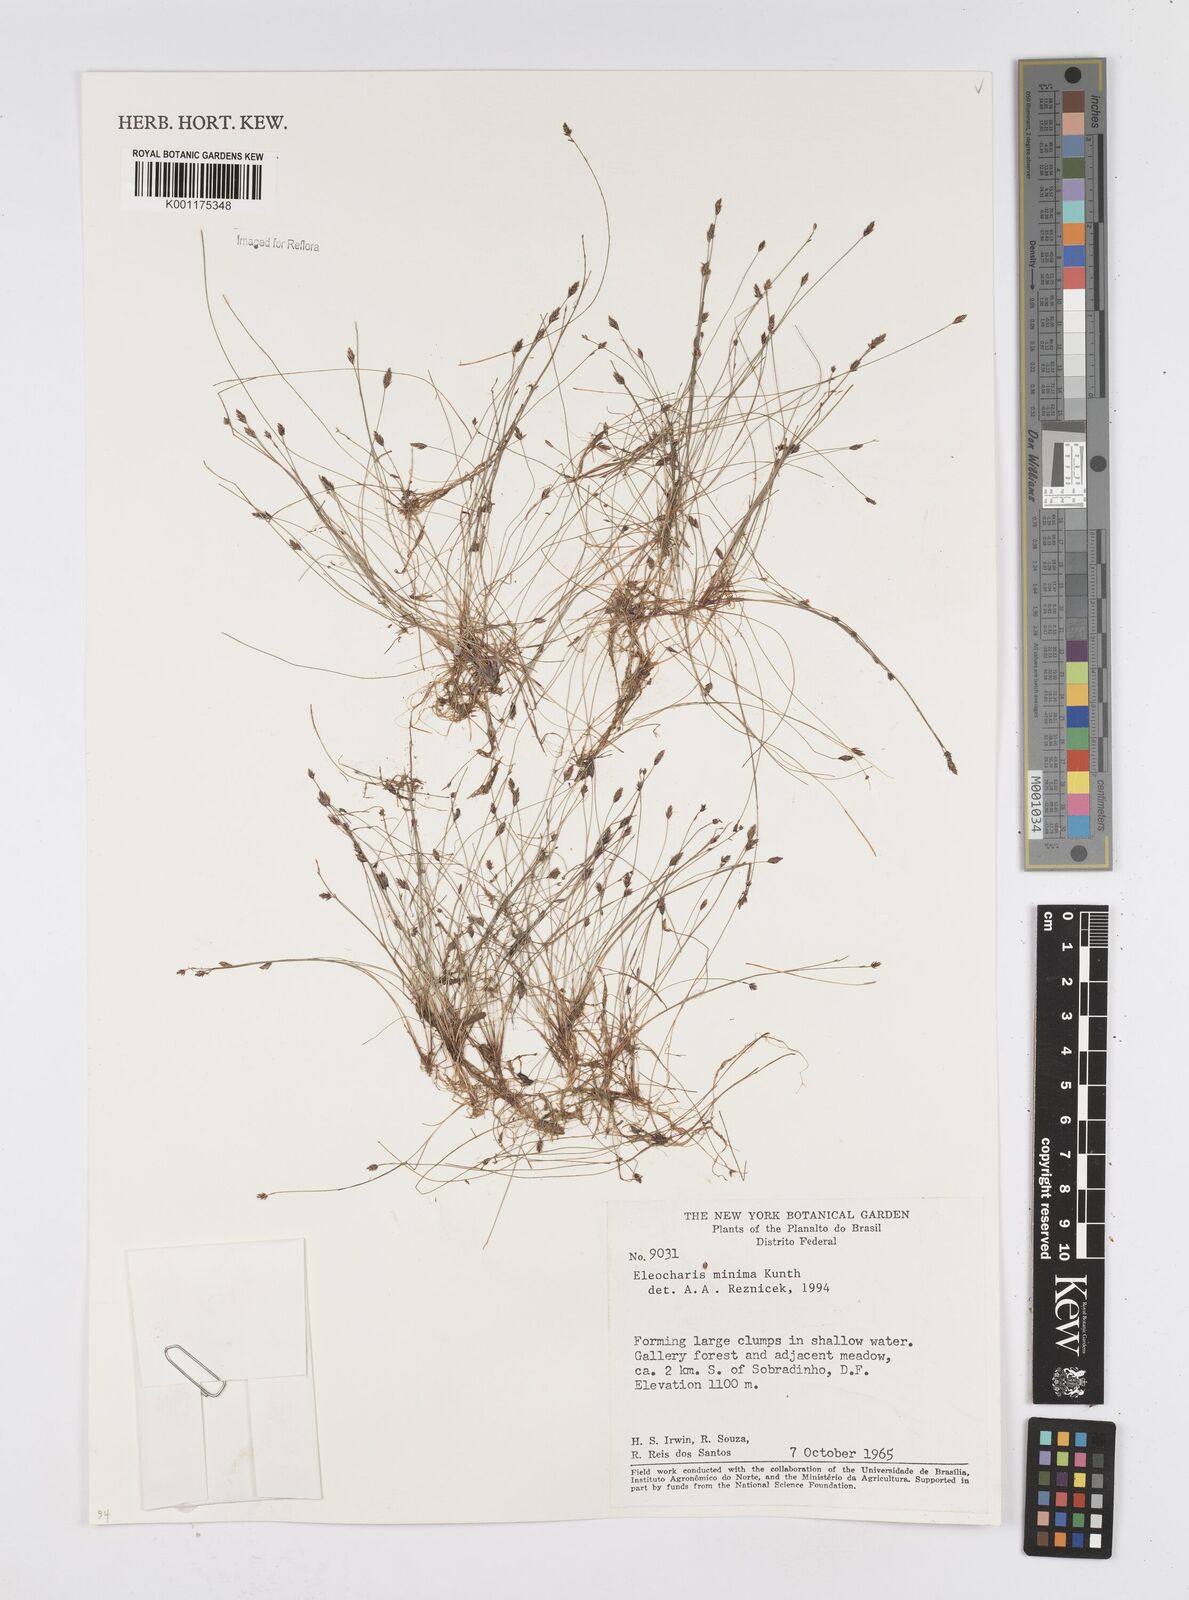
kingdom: Plantae
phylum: Tracheophyta
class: Liliopsida
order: Poales
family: Cyperaceae
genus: Eleocharis
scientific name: Eleocharis minima
